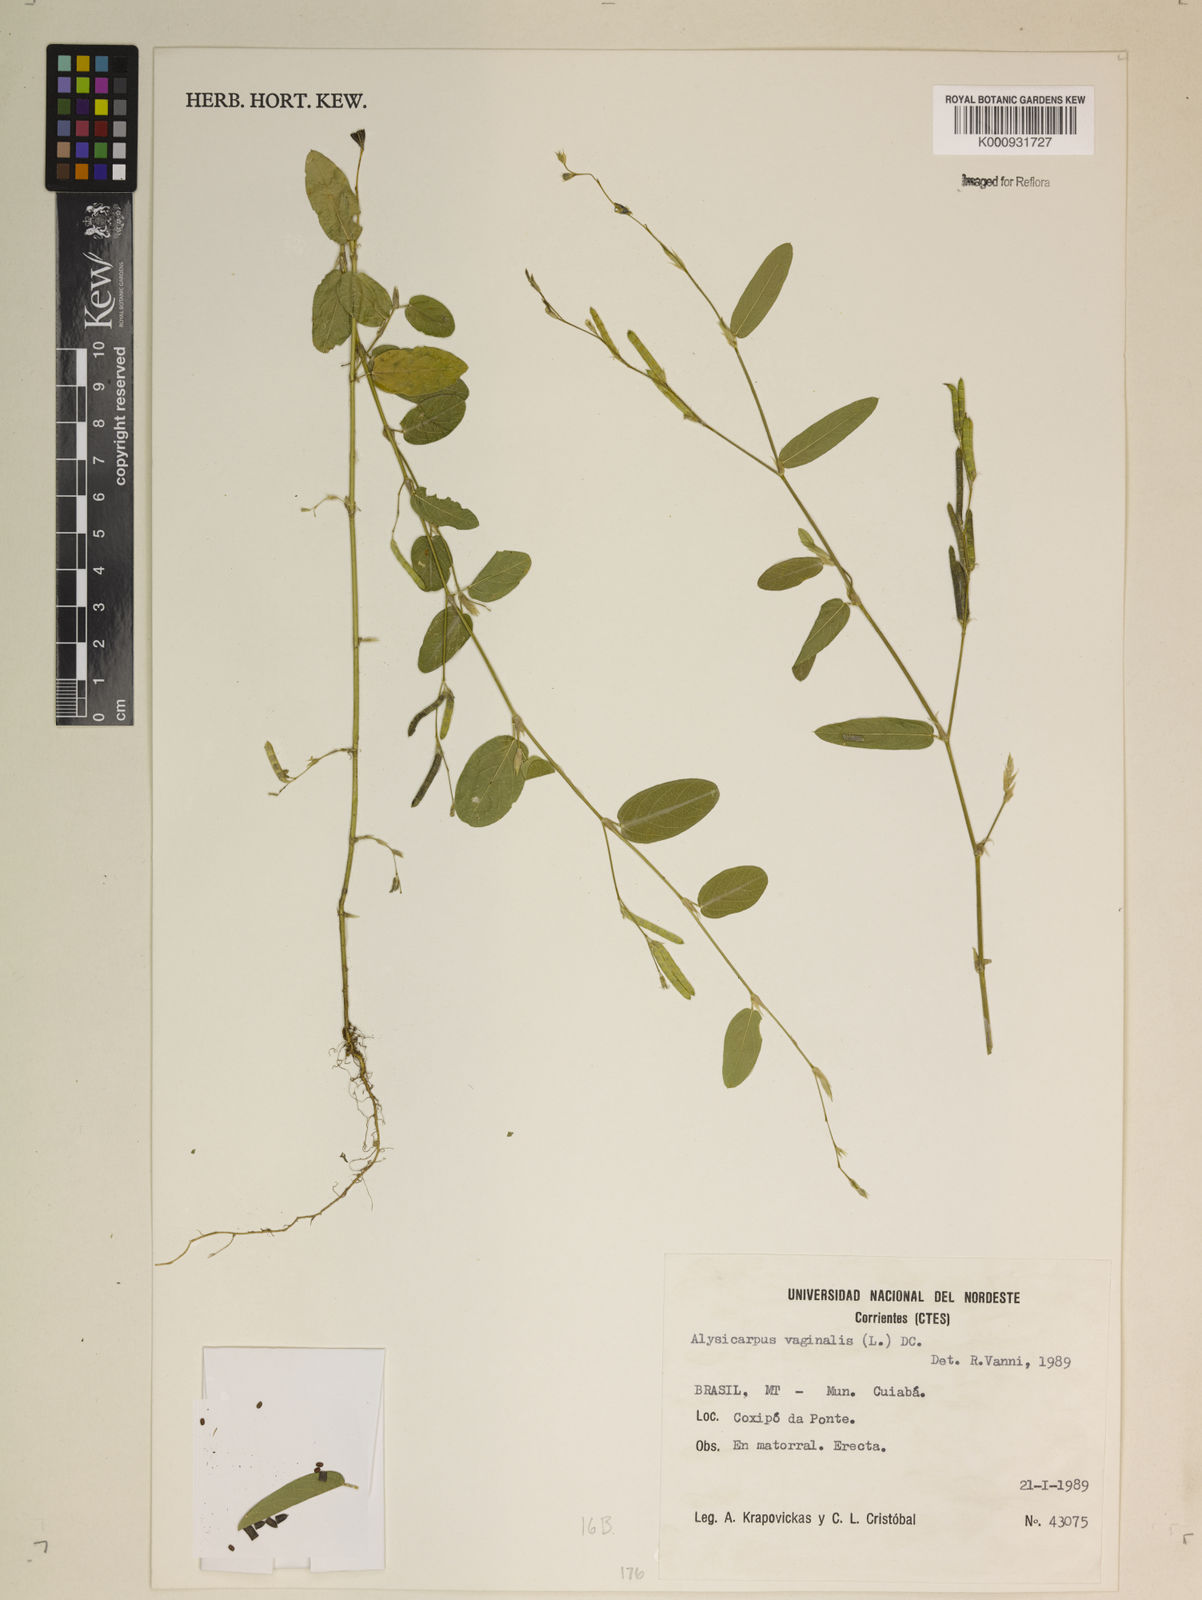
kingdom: Plantae
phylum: Tracheophyta
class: Magnoliopsida
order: Fabales
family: Fabaceae
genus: Alysicarpus
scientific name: Alysicarpus vaginalis
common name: White moneywort
